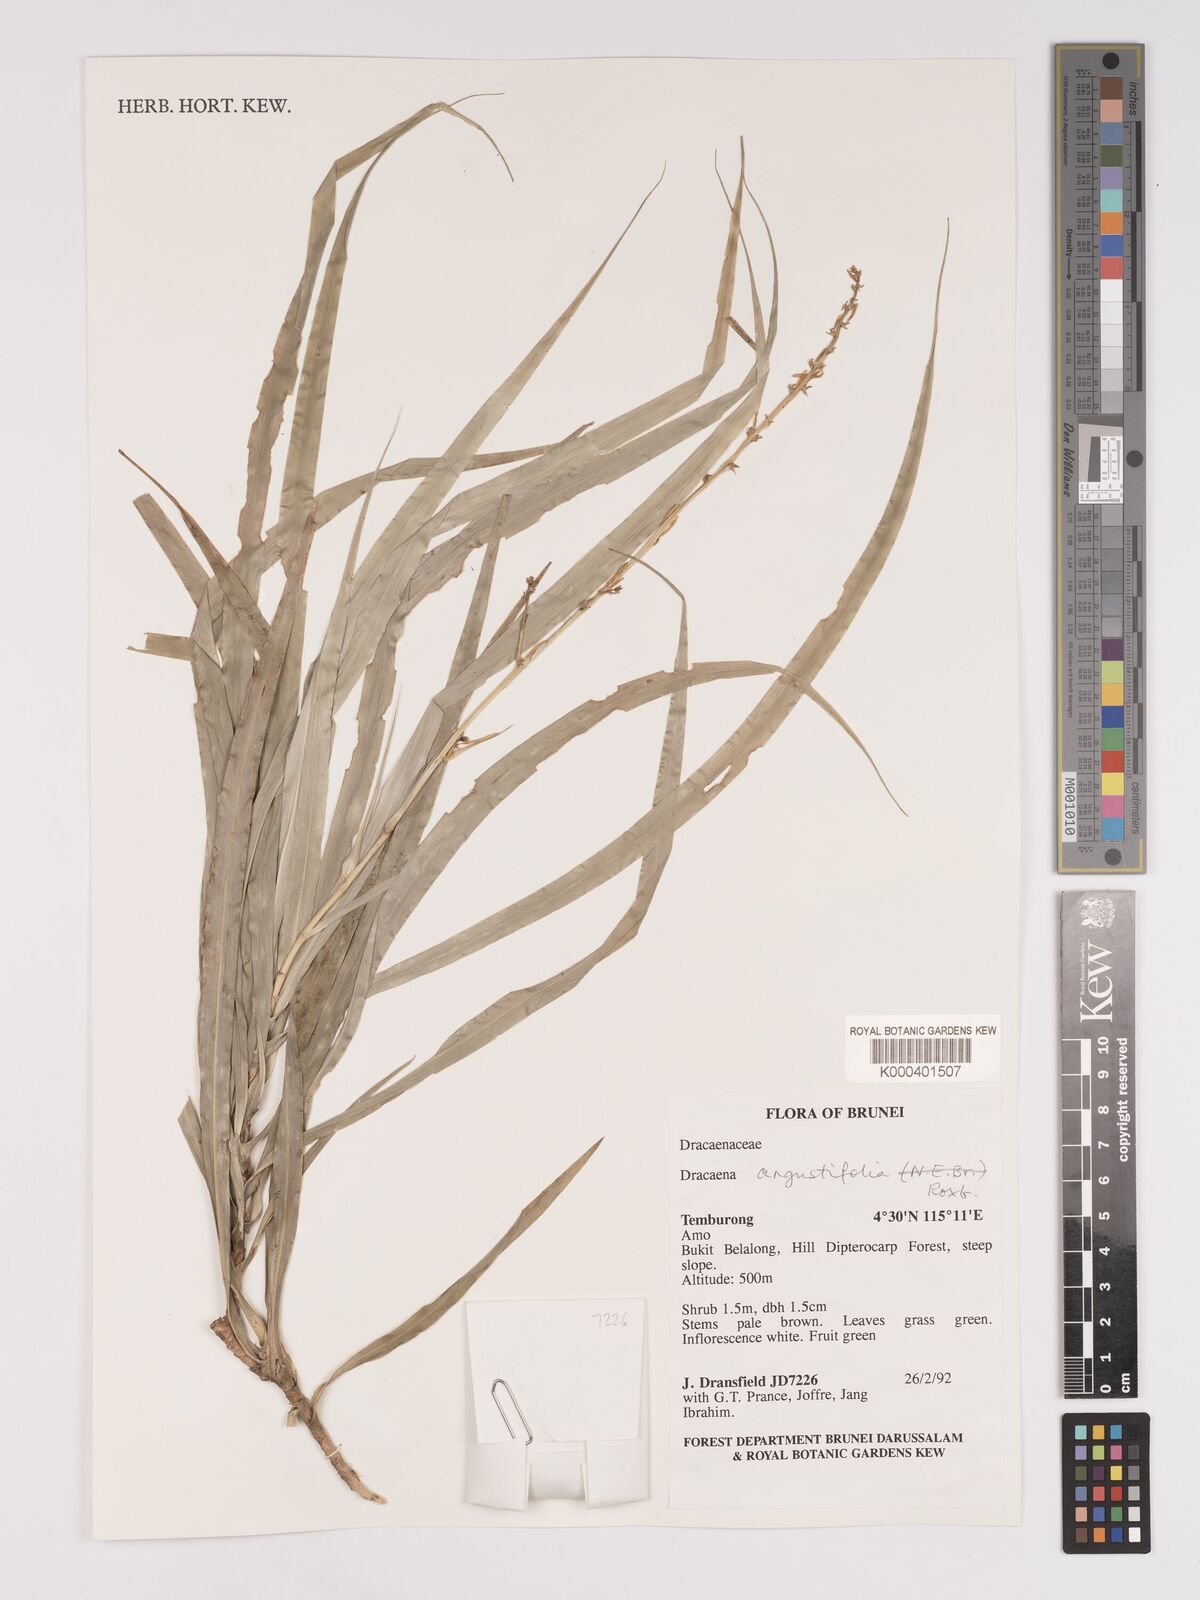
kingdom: Plantae
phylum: Tracheophyta
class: Liliopsida
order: Asparagales
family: Asparagaceae
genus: Dracaena
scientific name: Dracaena angustifolia
